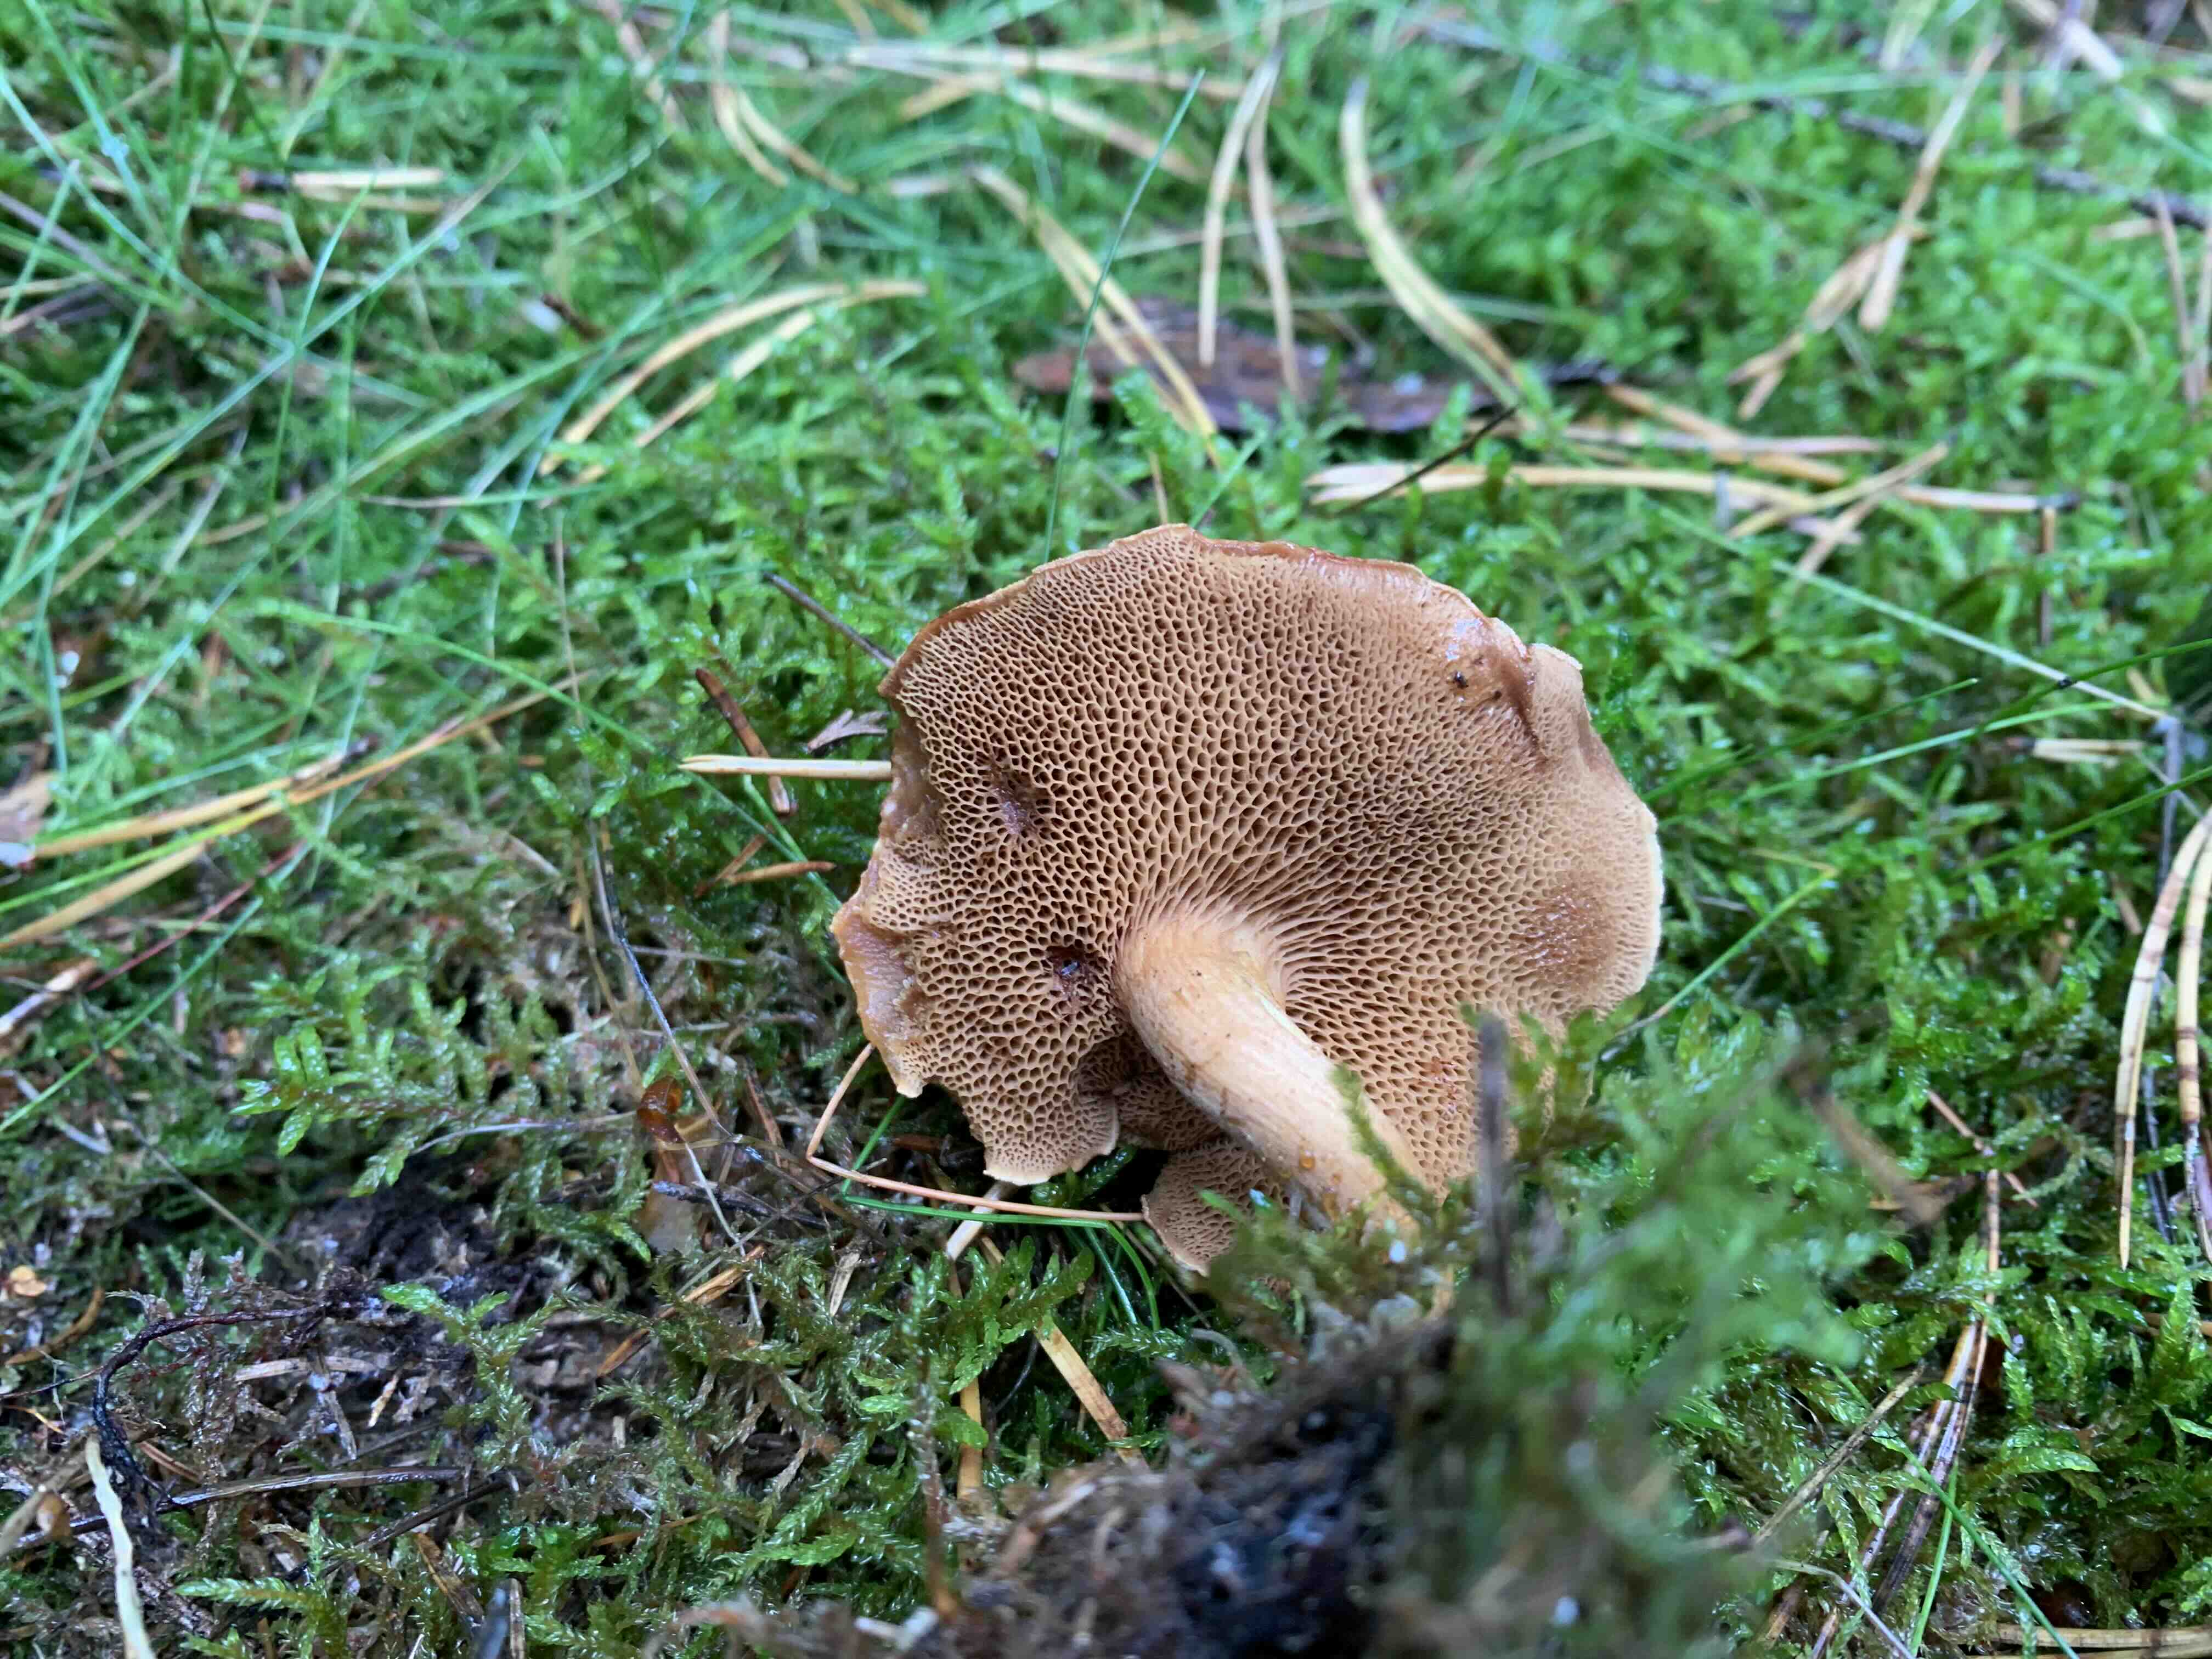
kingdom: Fungi
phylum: Basidiomycota
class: Agaricomycetes
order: Boletales
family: Boletaceae
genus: Chalciporus
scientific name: Chalciporus piperatus
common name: peberrørhat
